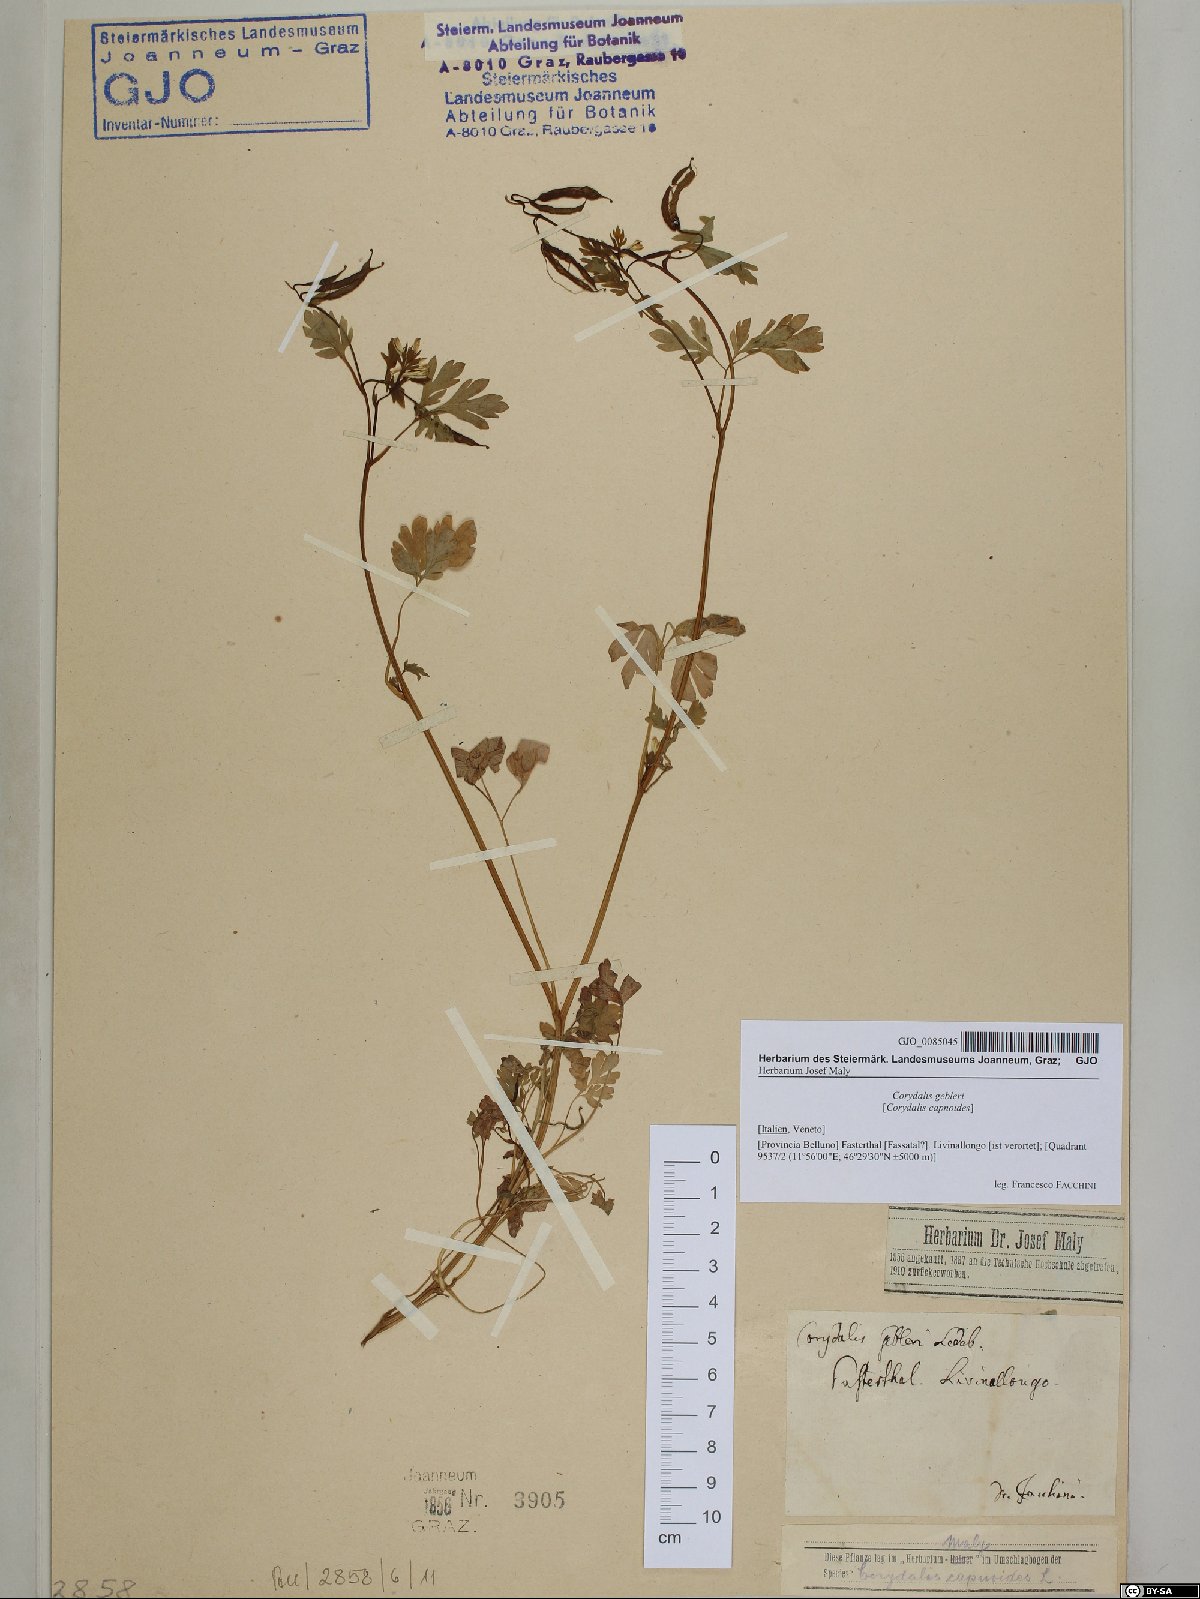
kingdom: Plantae
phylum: Tracheophyta
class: Magnoliopsida
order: Ranunculales
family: Papaveraceae
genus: Corydalis
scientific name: Corydalis capnoides
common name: Beaked corydalis
